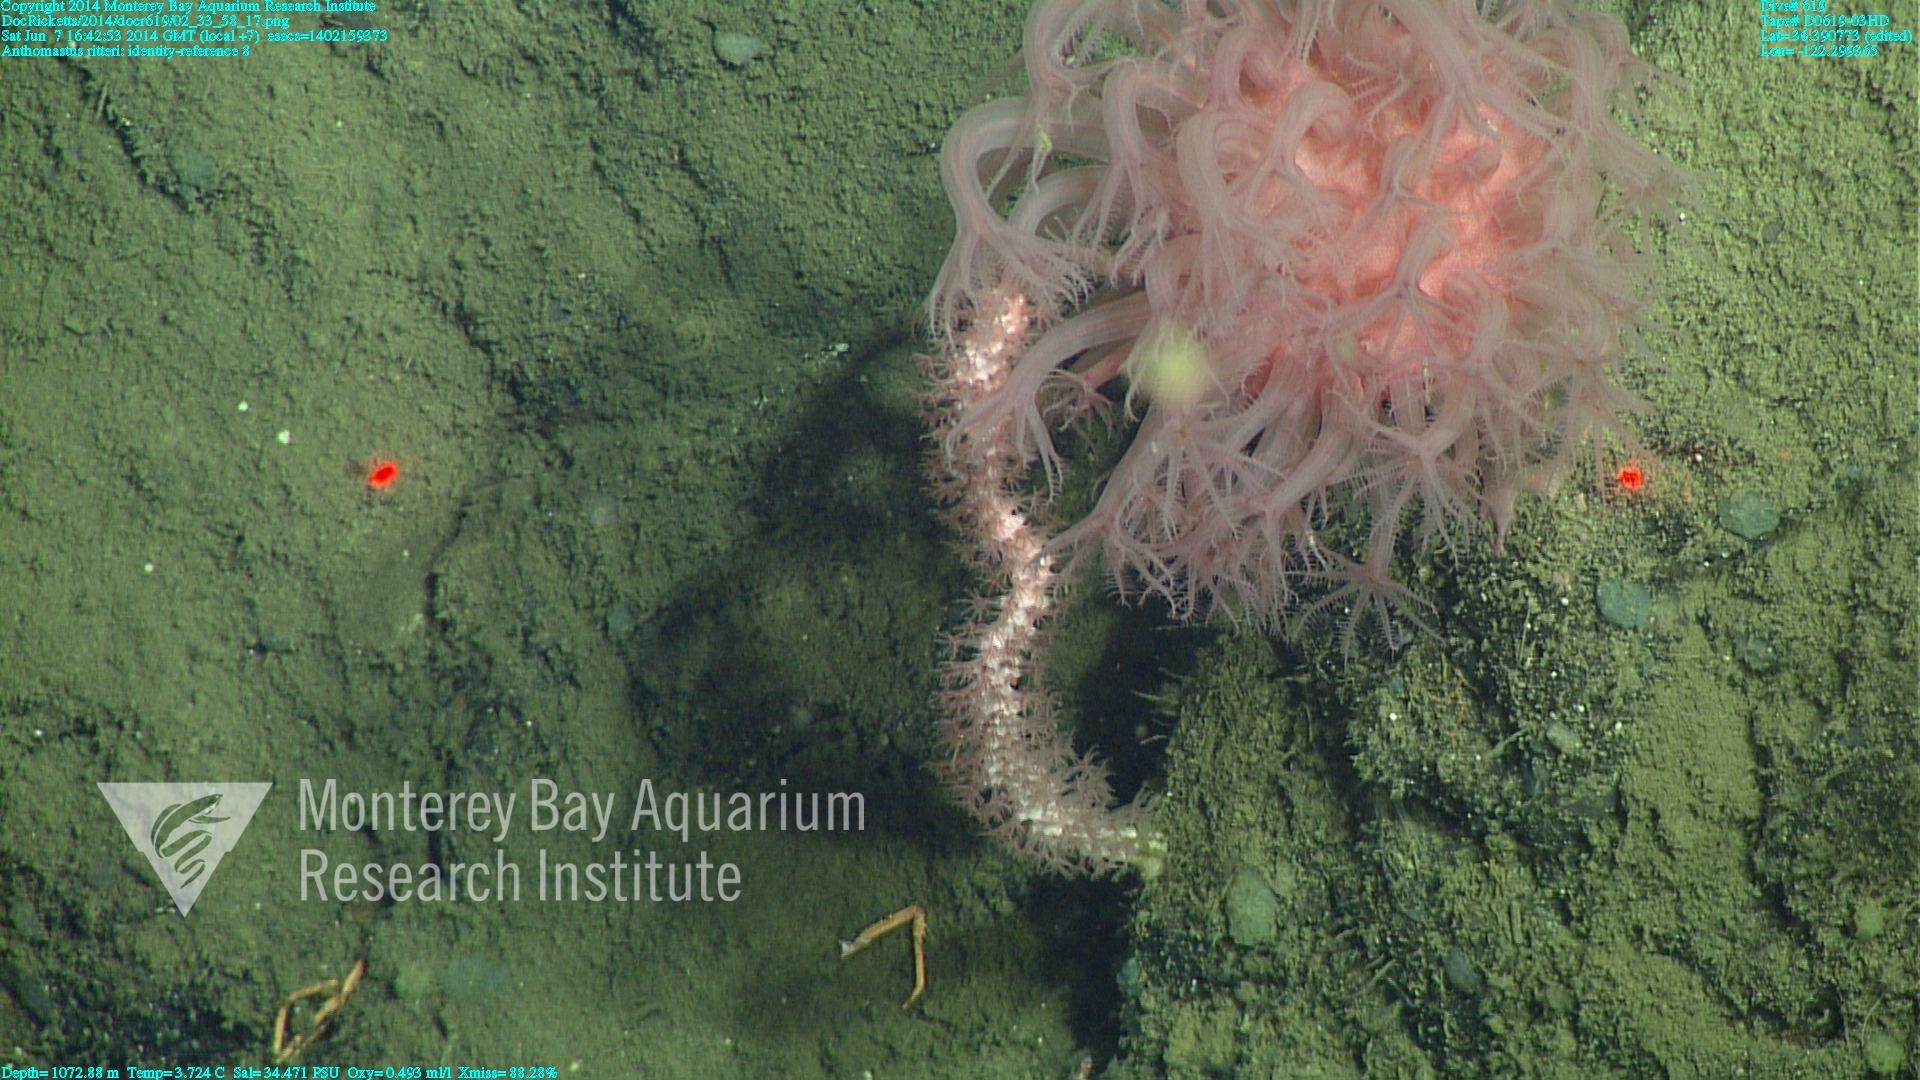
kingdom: Animalia
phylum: Cnidaria
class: Anthozoa
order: Scleralcyonacea
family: Coralliidae
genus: Heteropolypus
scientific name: Heteropolypus ritteri
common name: Ritter's soft coral
